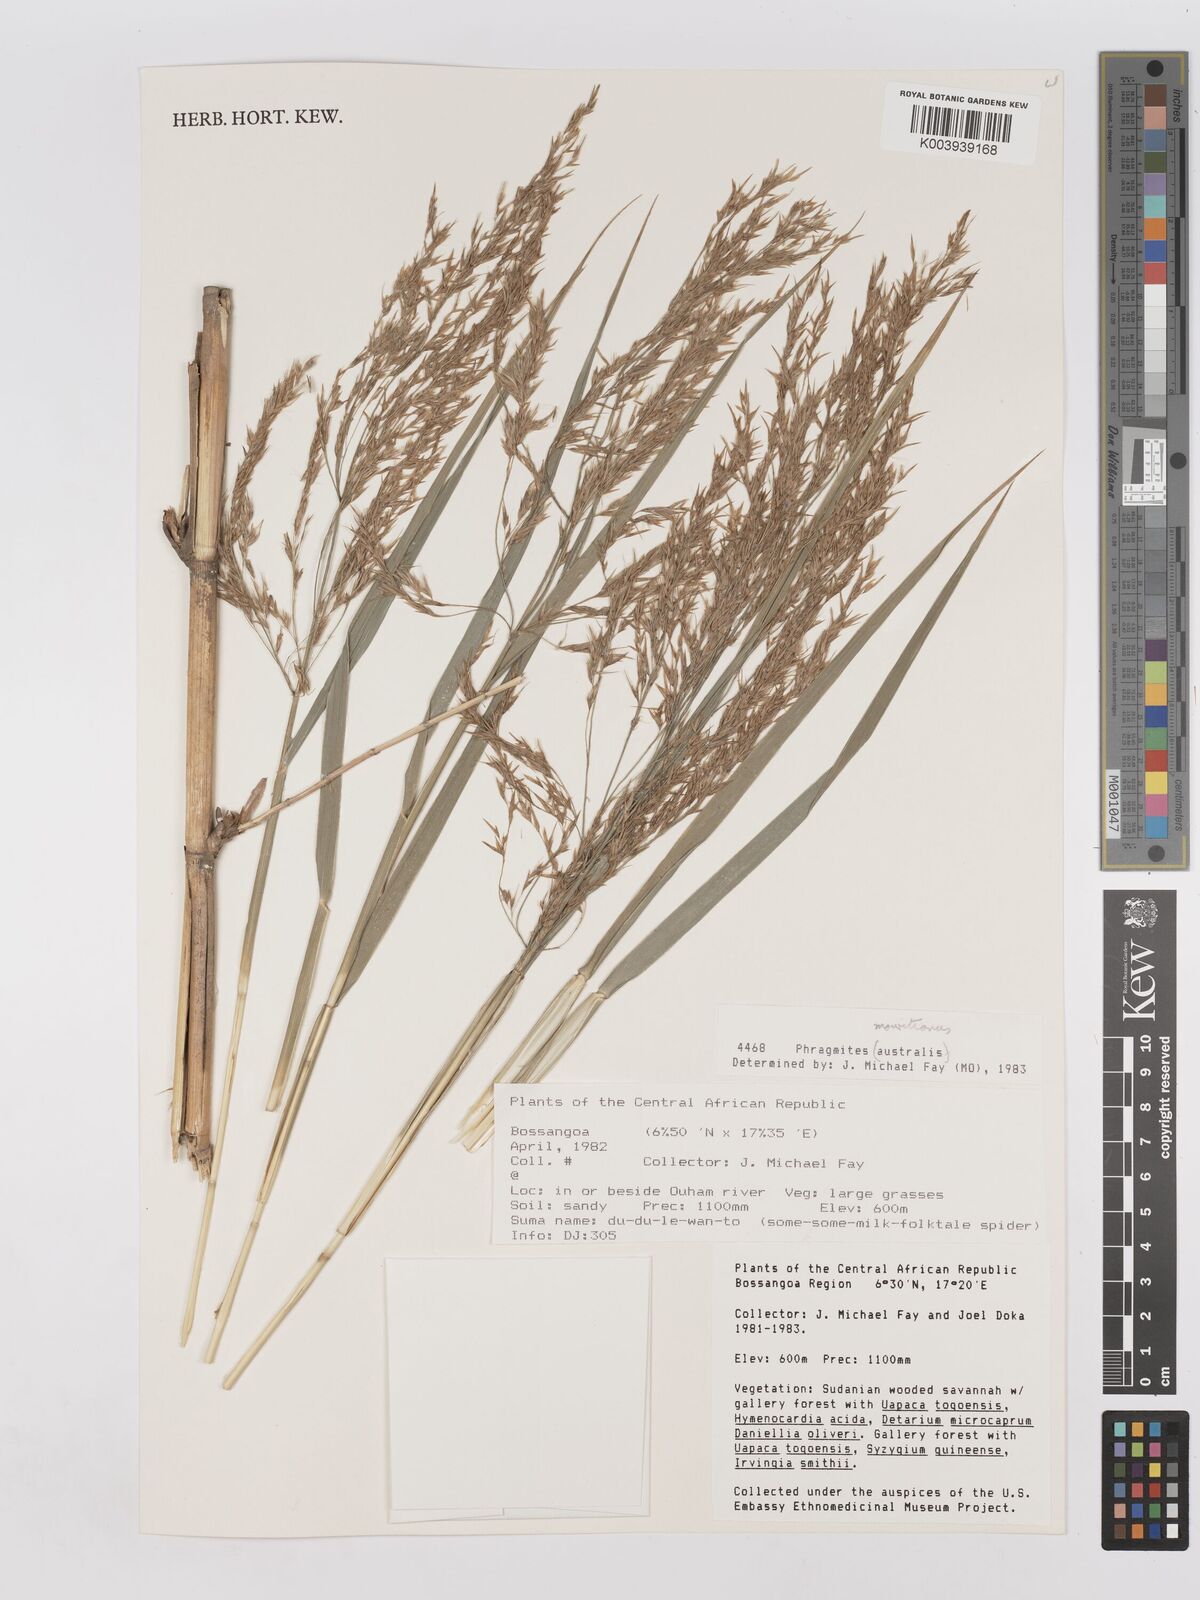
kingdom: Plantae
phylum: Tracheophyta
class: Liliopsida
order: Poales
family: Poaceae
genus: Phragmites
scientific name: Phragmites mauritianus
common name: Reed grass
